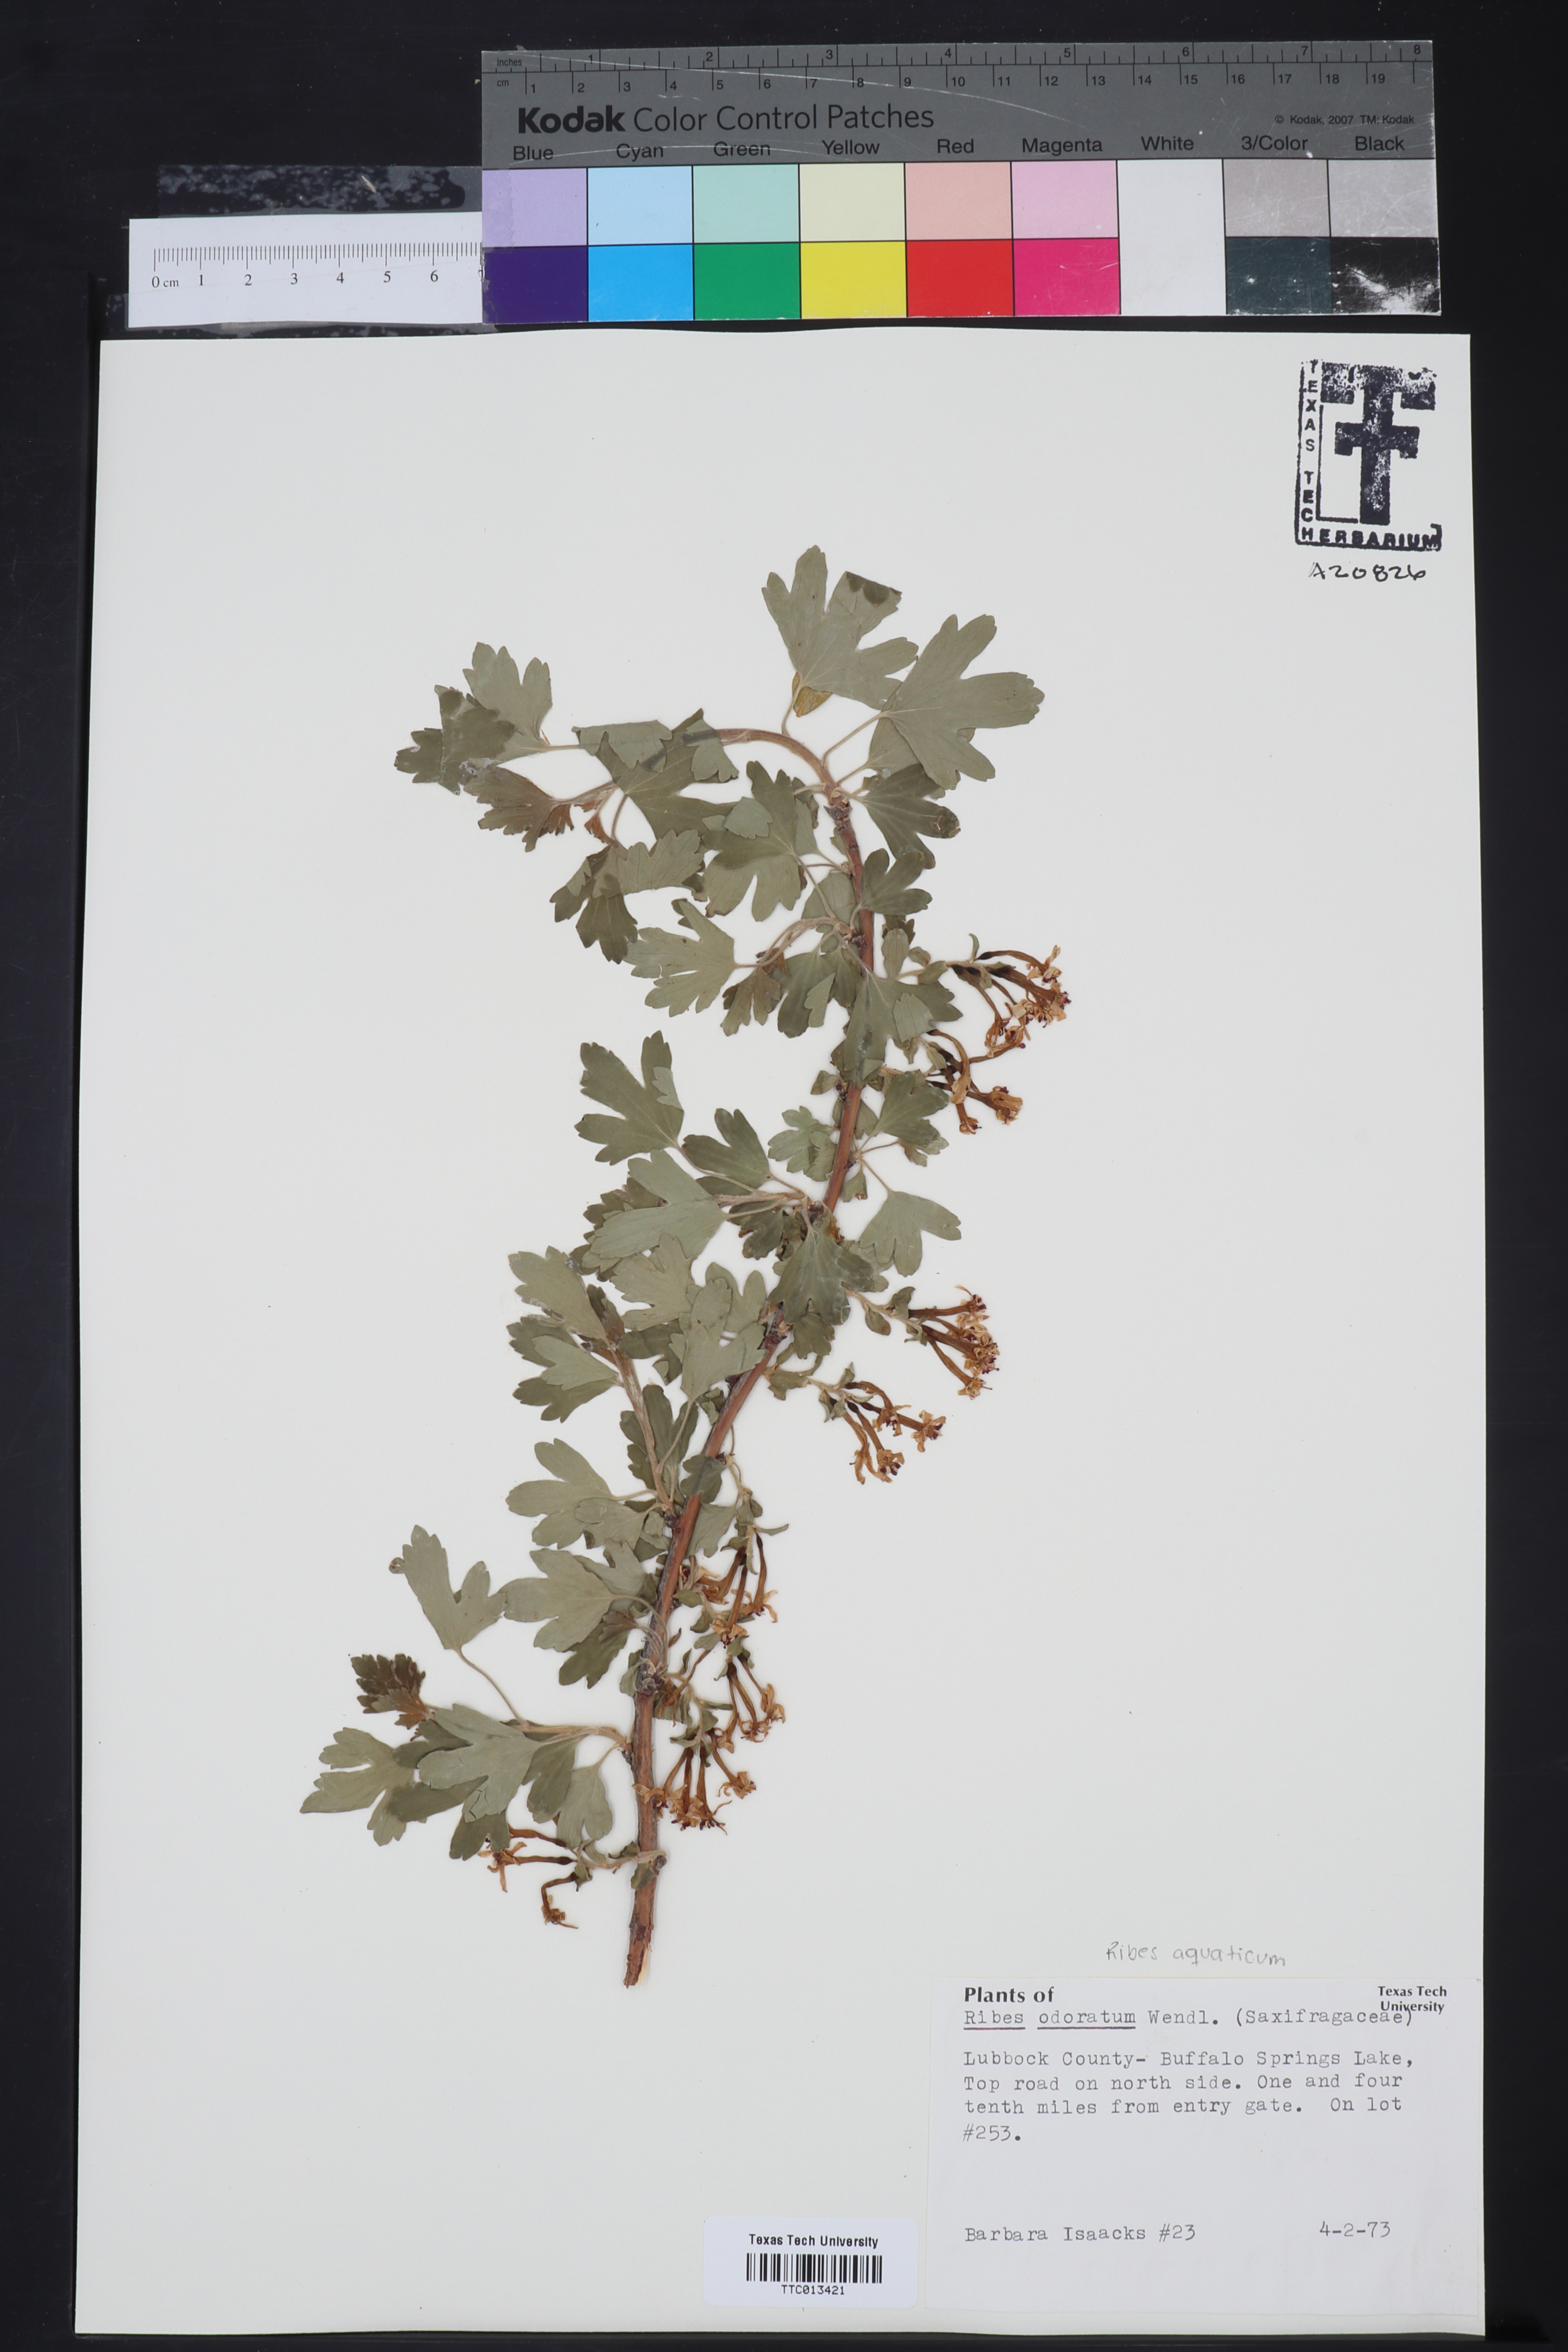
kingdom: Plantae
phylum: Tracheophyta
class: Magnoliopsida
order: Saxifragales
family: Grossulariaceae
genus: Ribes
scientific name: Ribes aureum
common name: Golden currant
